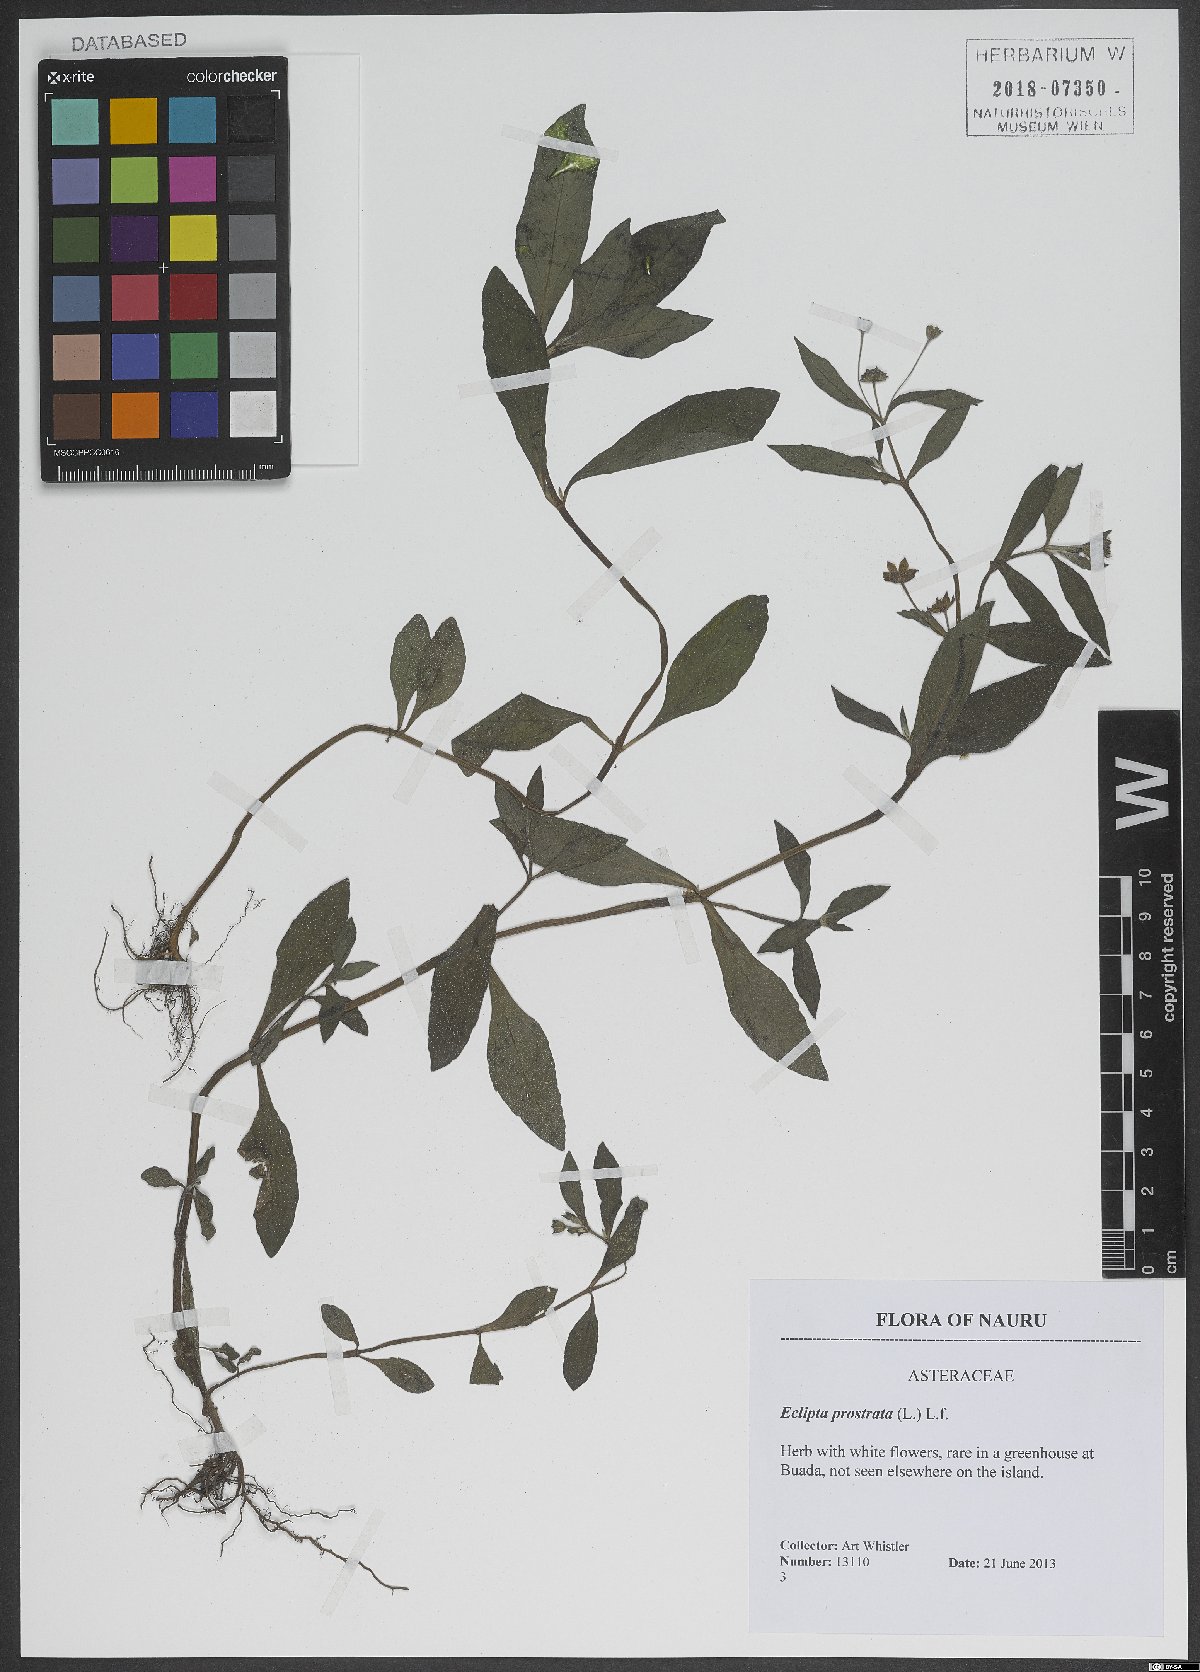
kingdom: Plantae
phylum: Tracheophyta
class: Magnoliopsida
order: Asterales
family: Asteraceae
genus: Eclipta
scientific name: Eclipta prostrata
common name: False daisy
